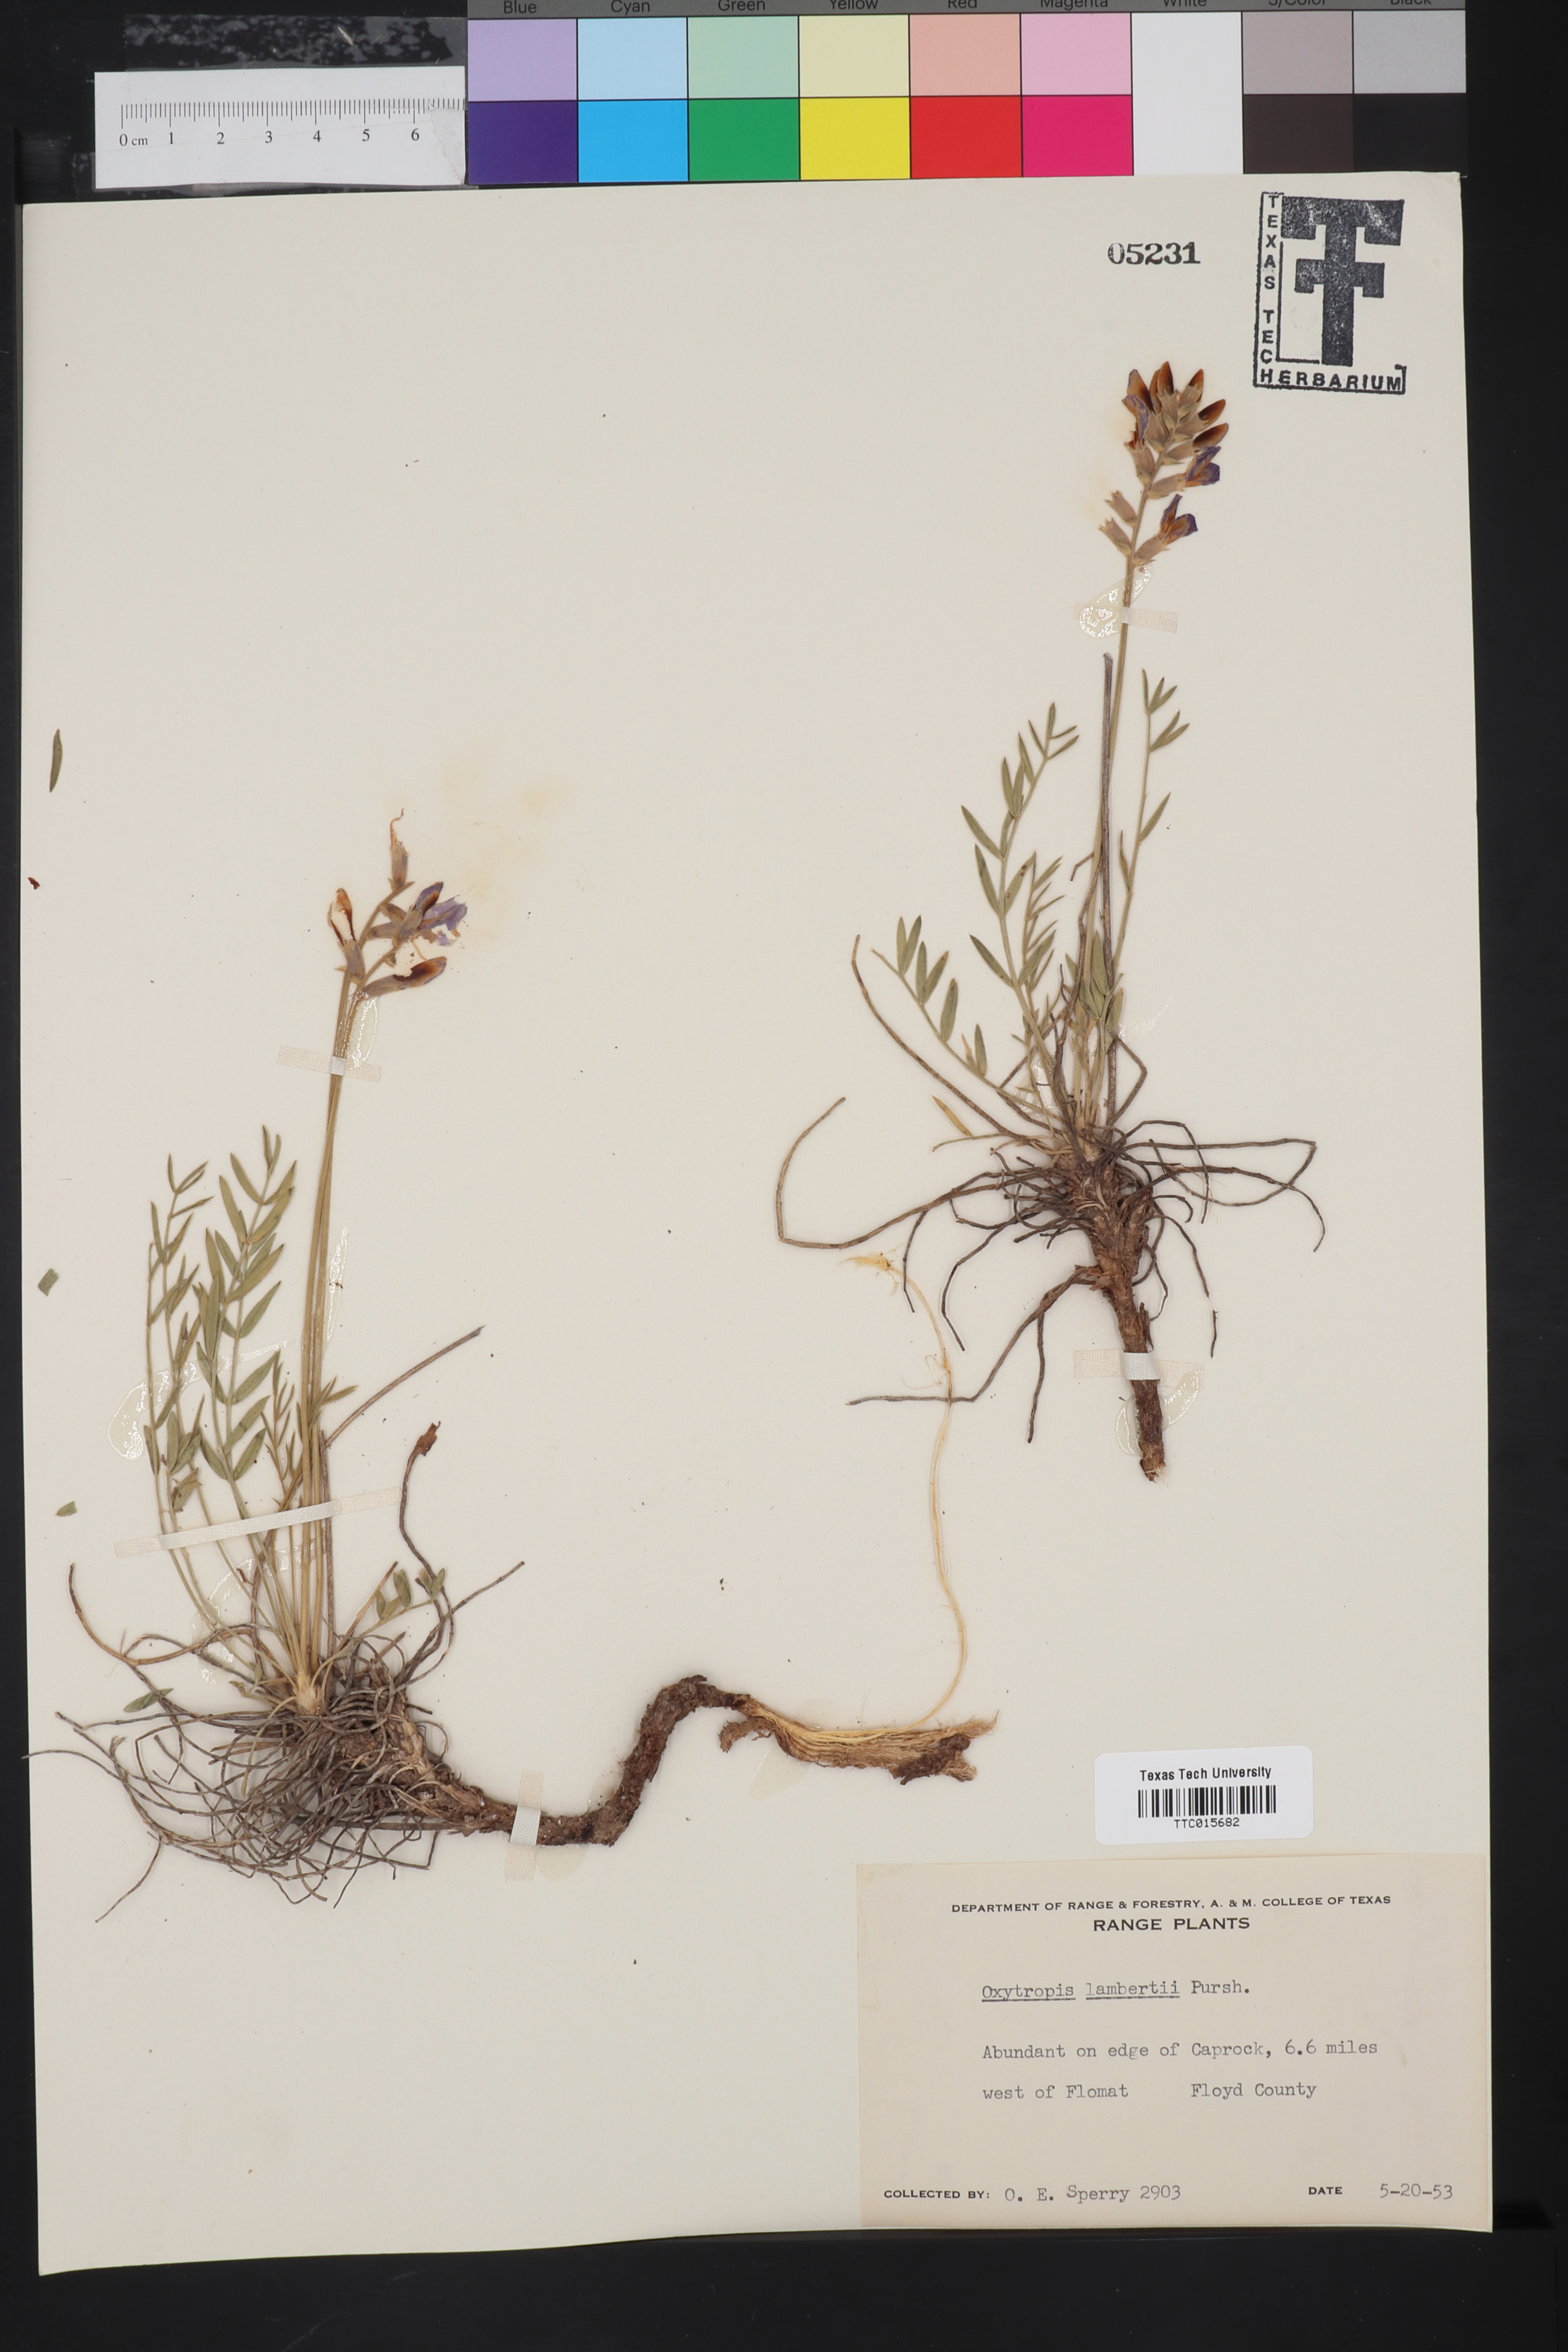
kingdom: Plantae
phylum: Tracheophyta
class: Magnoliopsida
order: Fabales
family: Fabaceae
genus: Oxytropis
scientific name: Oxytropis lambertii
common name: Purple locoweed
